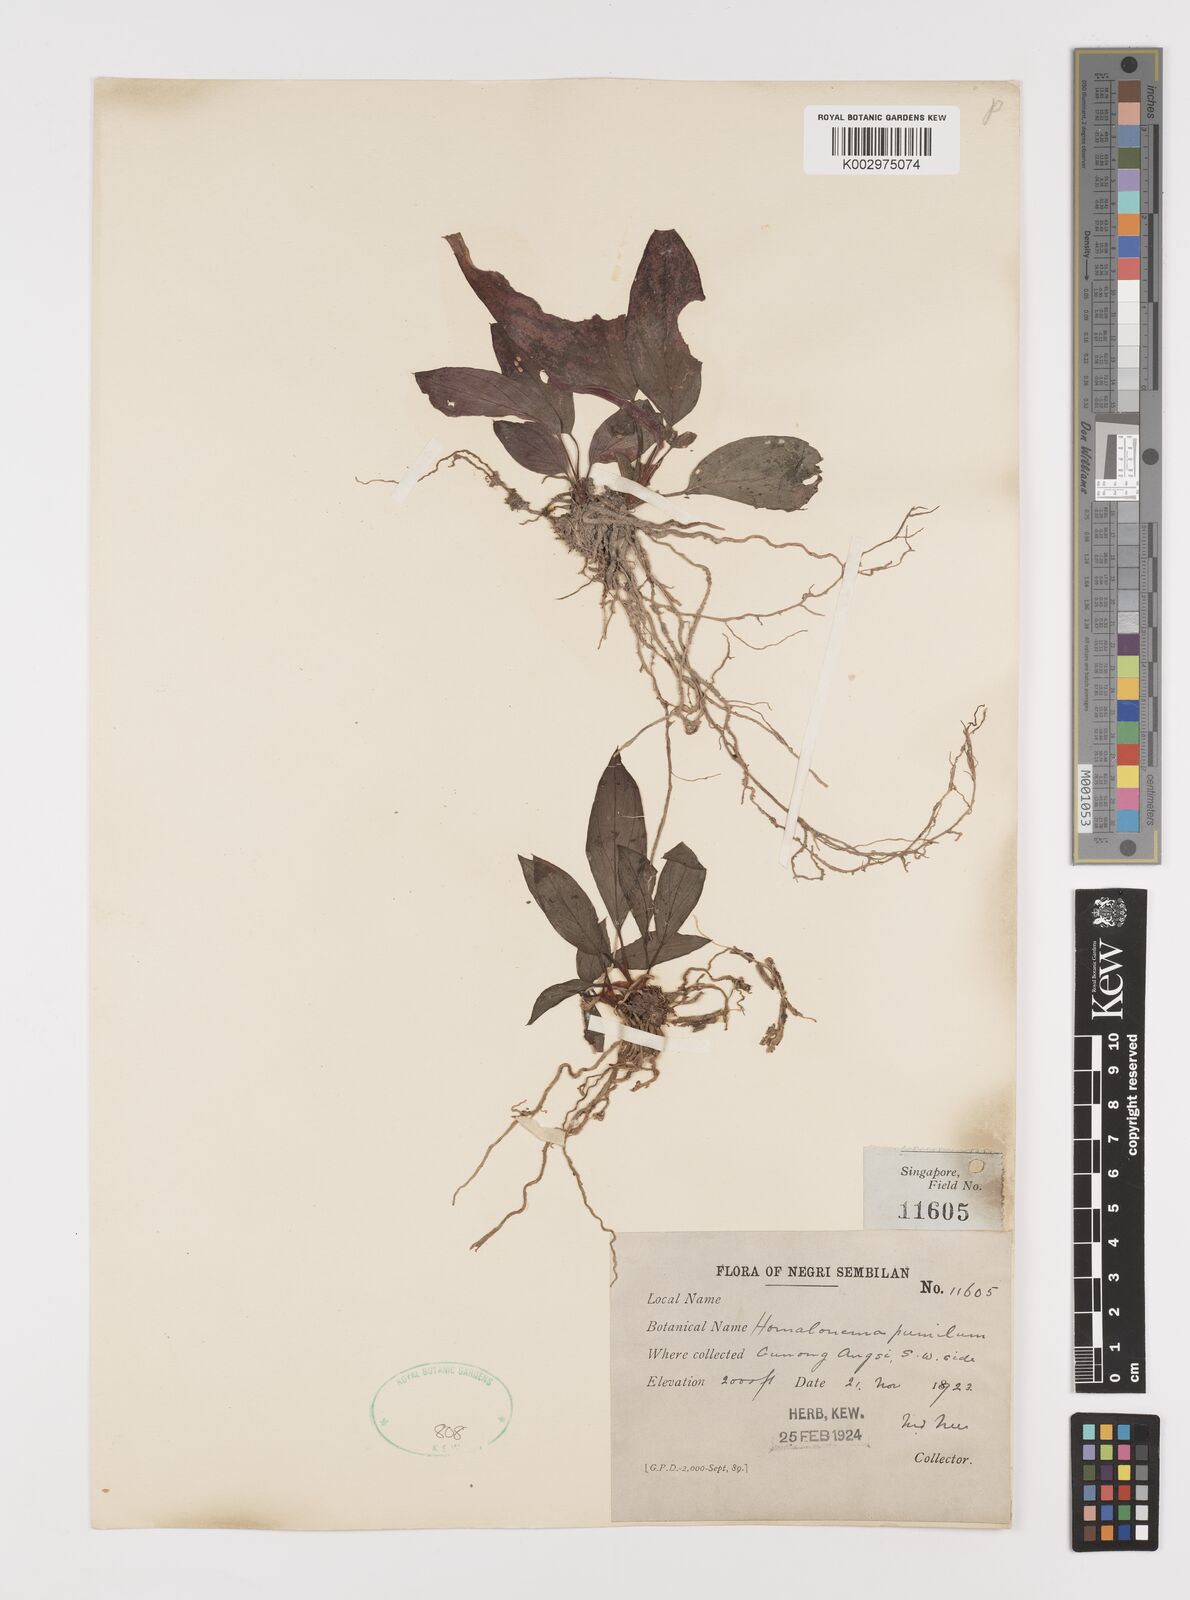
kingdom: Plantae
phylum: Tracheophyta
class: Liliopsida
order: Alismatales
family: Araceae
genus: Homalomena
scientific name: Homalomena humilis
